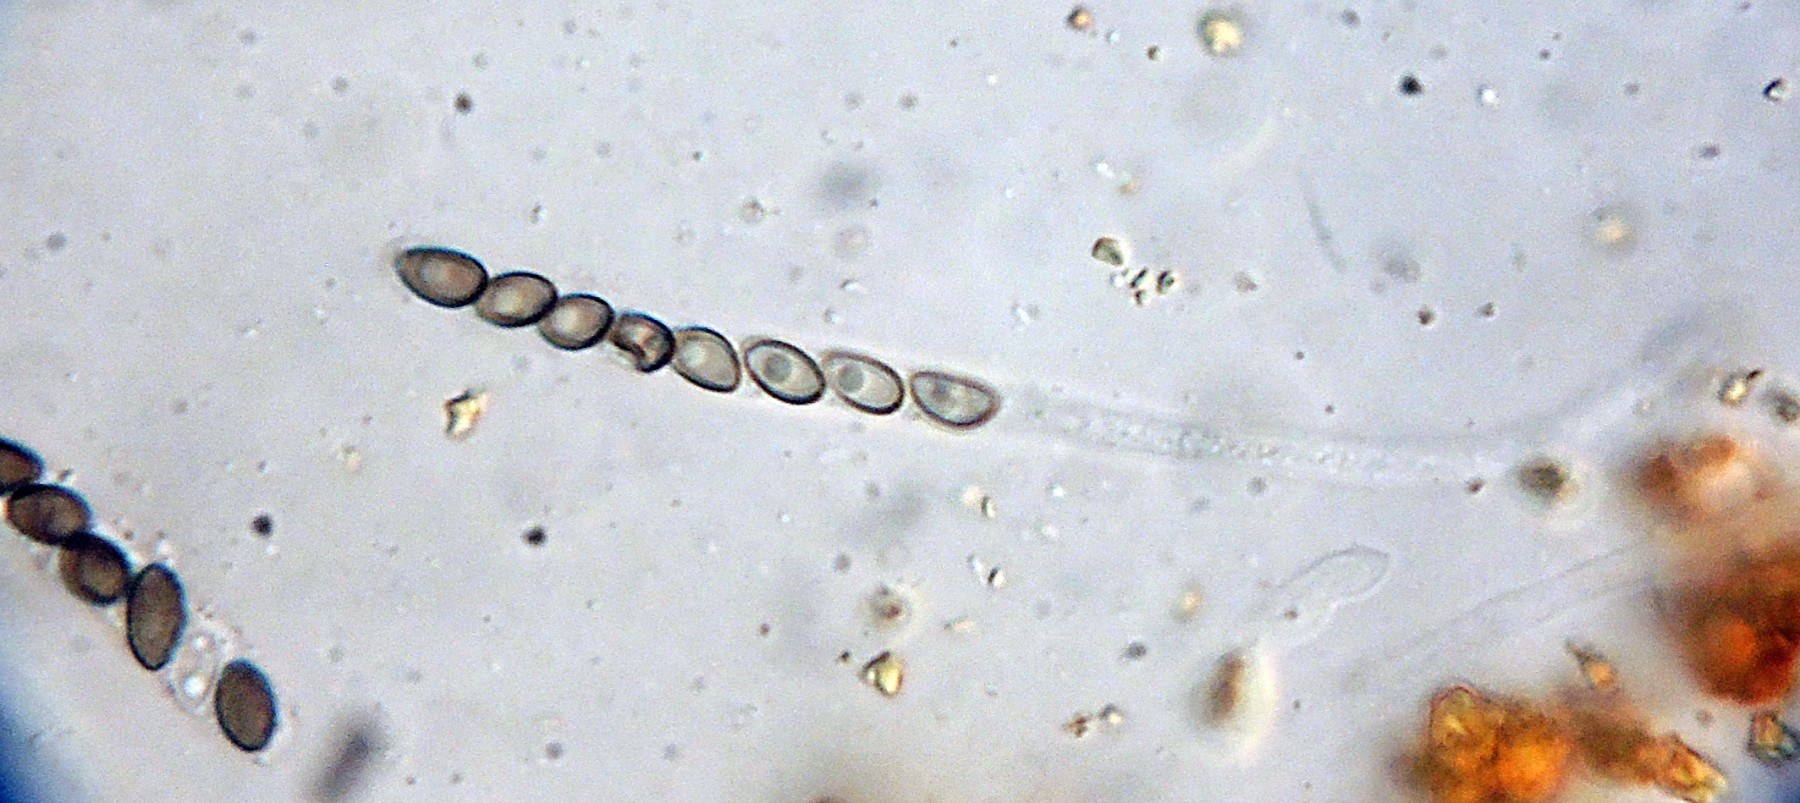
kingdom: Fungi
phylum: Ascomycota
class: Sordariomycetes
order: Xylariales
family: Hypoxylaceae
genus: Hypoxylon
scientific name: Hypoxylon ticinense
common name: småsporet kulbær
